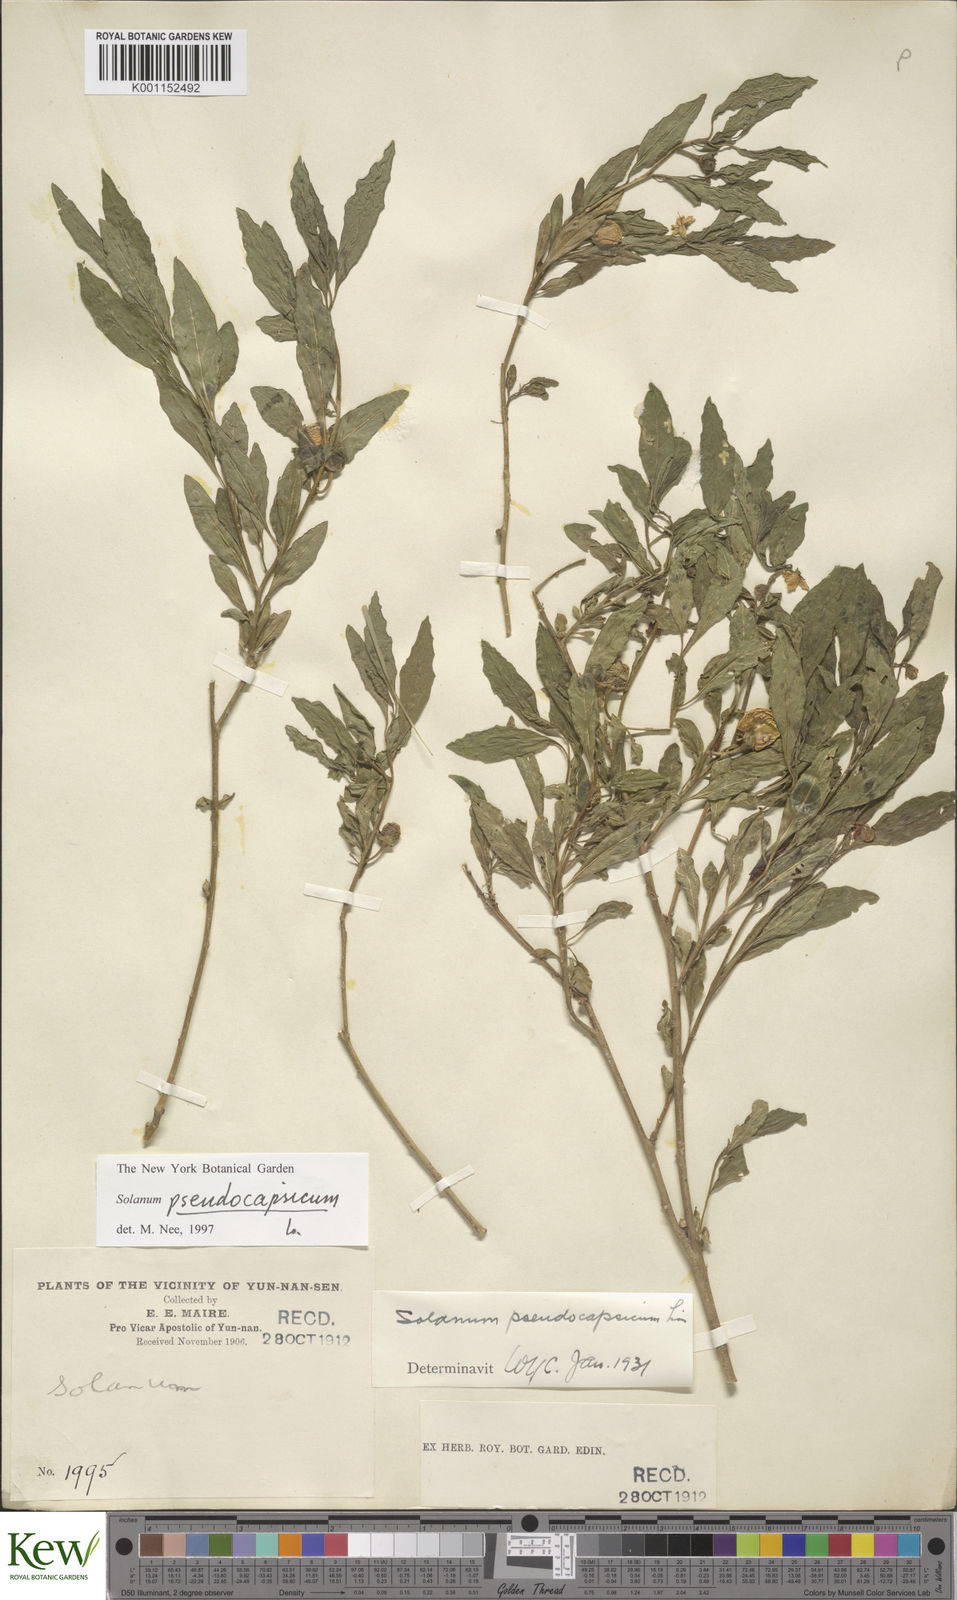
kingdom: Plantae
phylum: Tracheophyta
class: Magnoliopsida
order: Solanales
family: Solanaceae
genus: Solanum
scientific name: Solanum pseudocapsicum
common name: Jerusalem cherry
